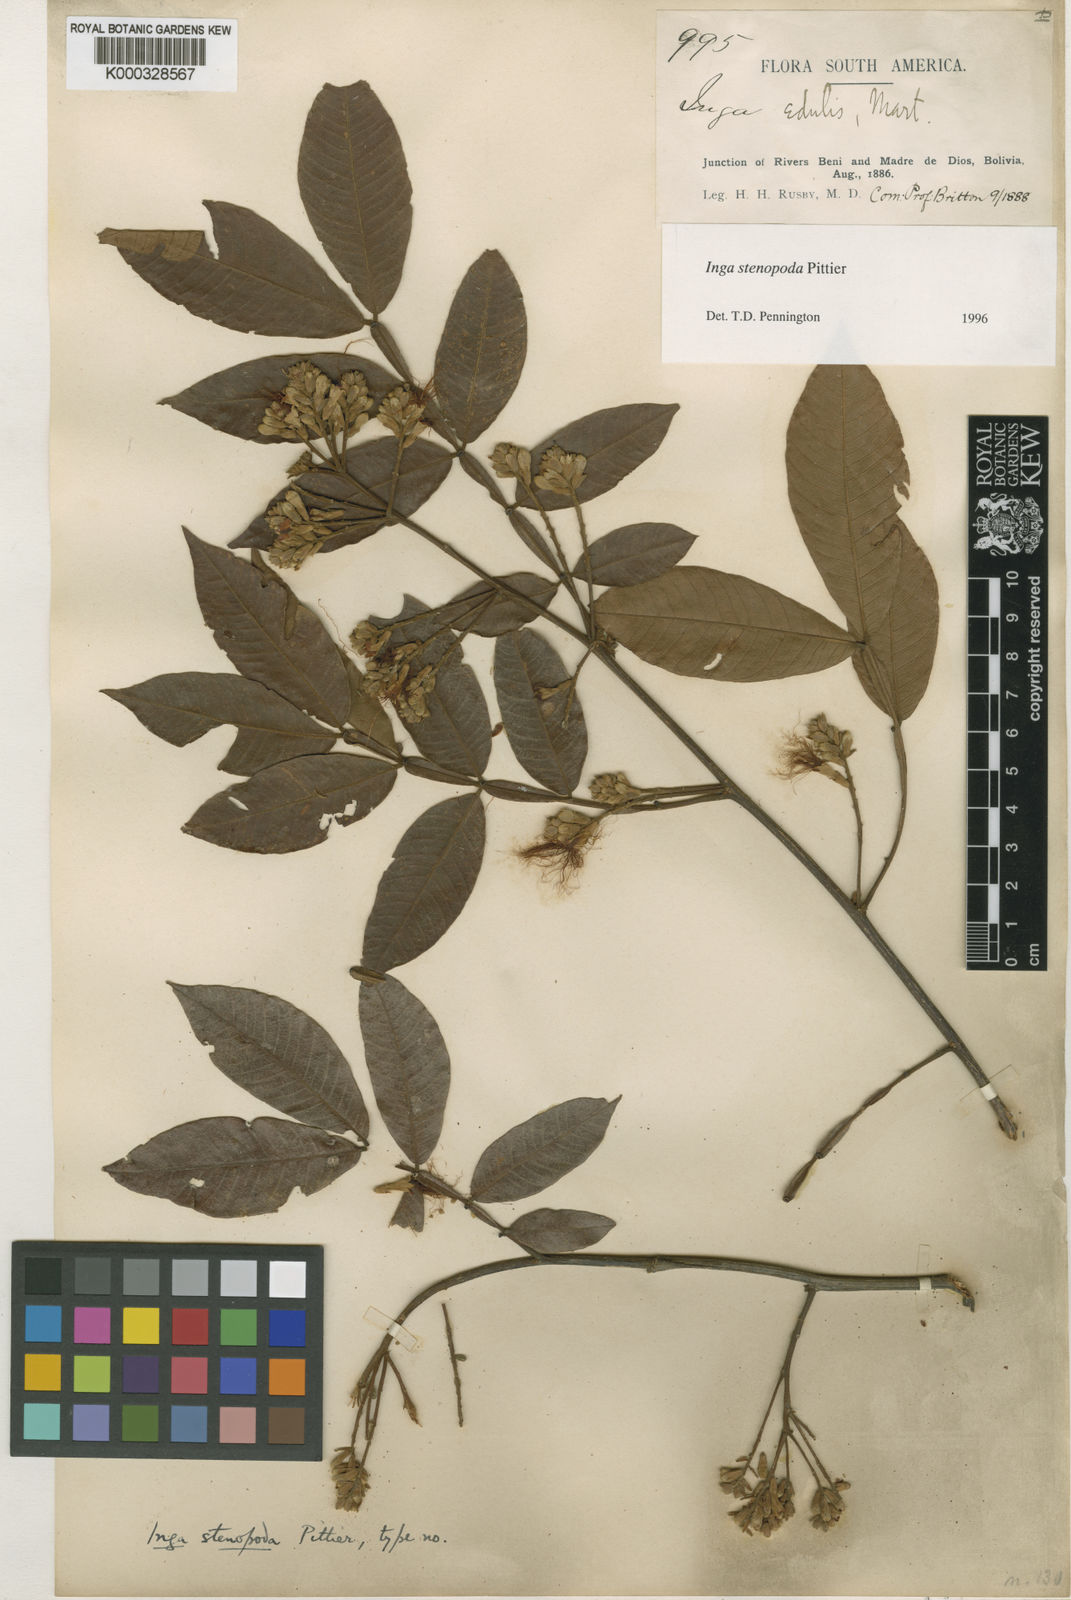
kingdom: Plantae
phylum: Tracheophyta
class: Magnoliopsida
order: Fabales
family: Fabaceae
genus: Inga
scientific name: Inga stenopoda
